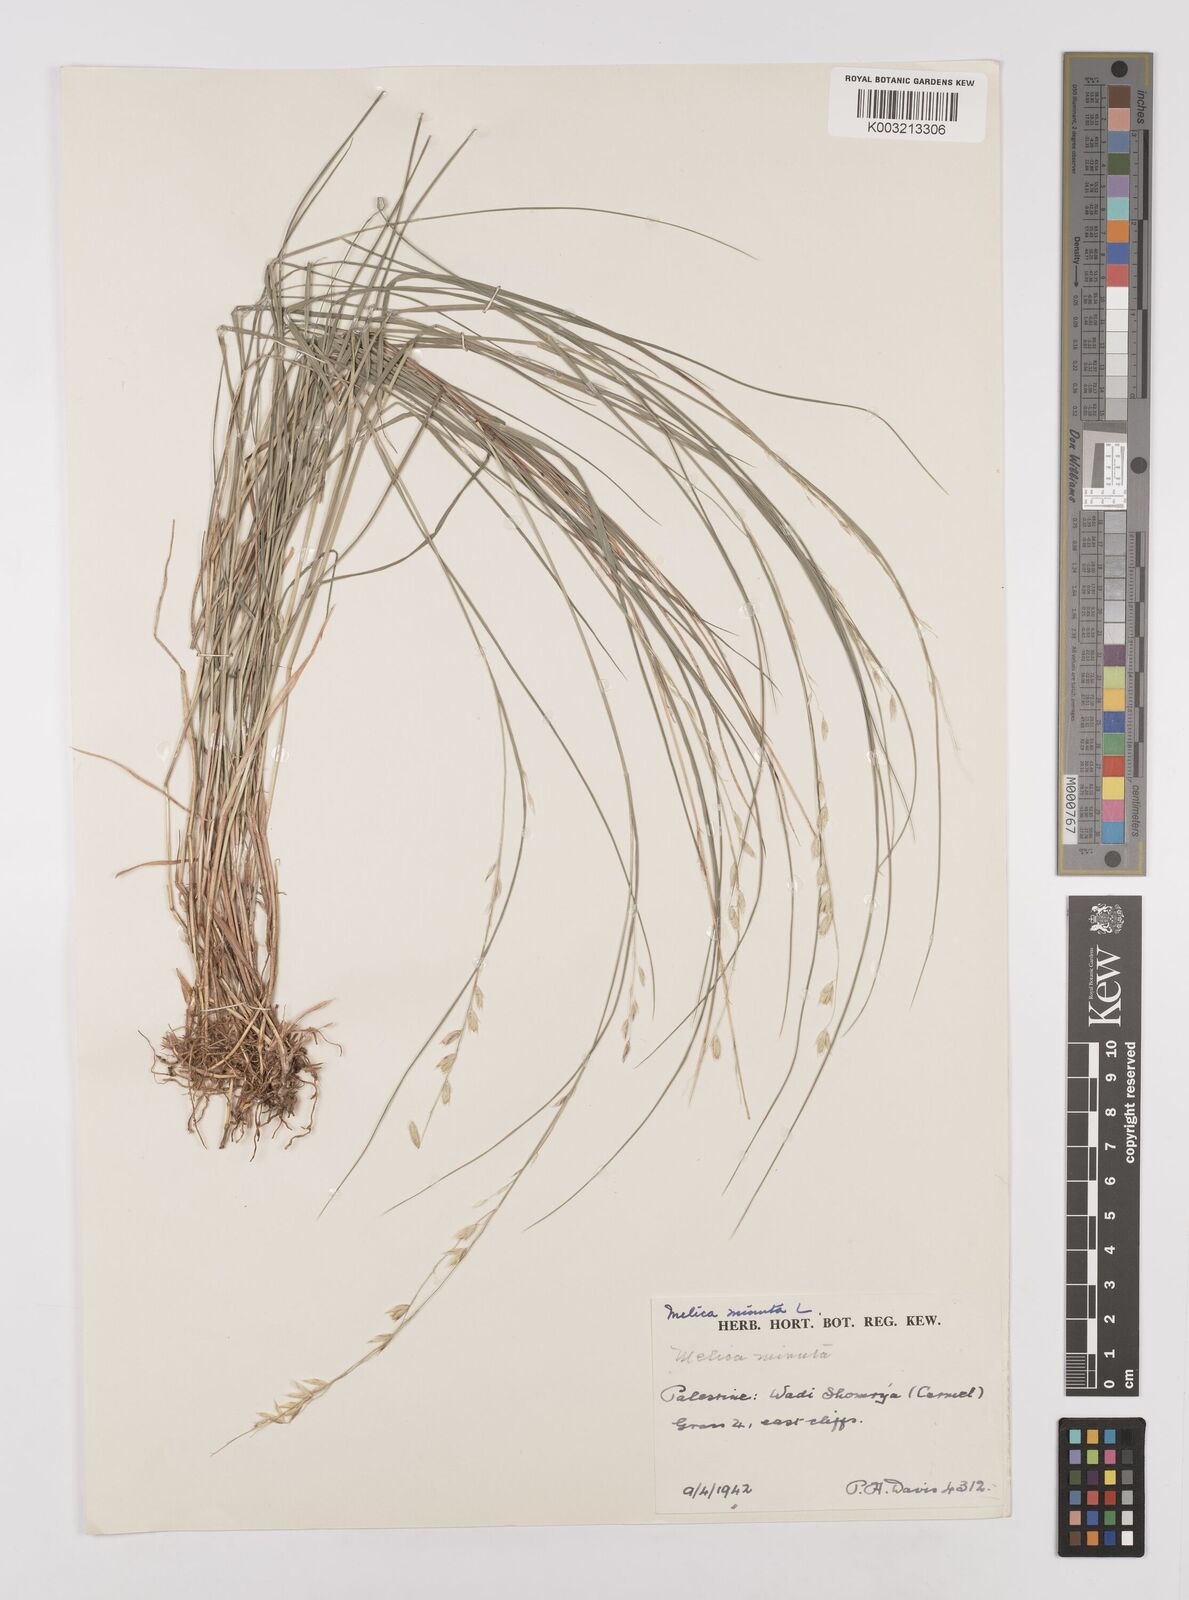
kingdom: Plantae
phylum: Tracheophyta
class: Liliopsida
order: Poales
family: Poaceae
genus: Melica
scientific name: Melica minuta
